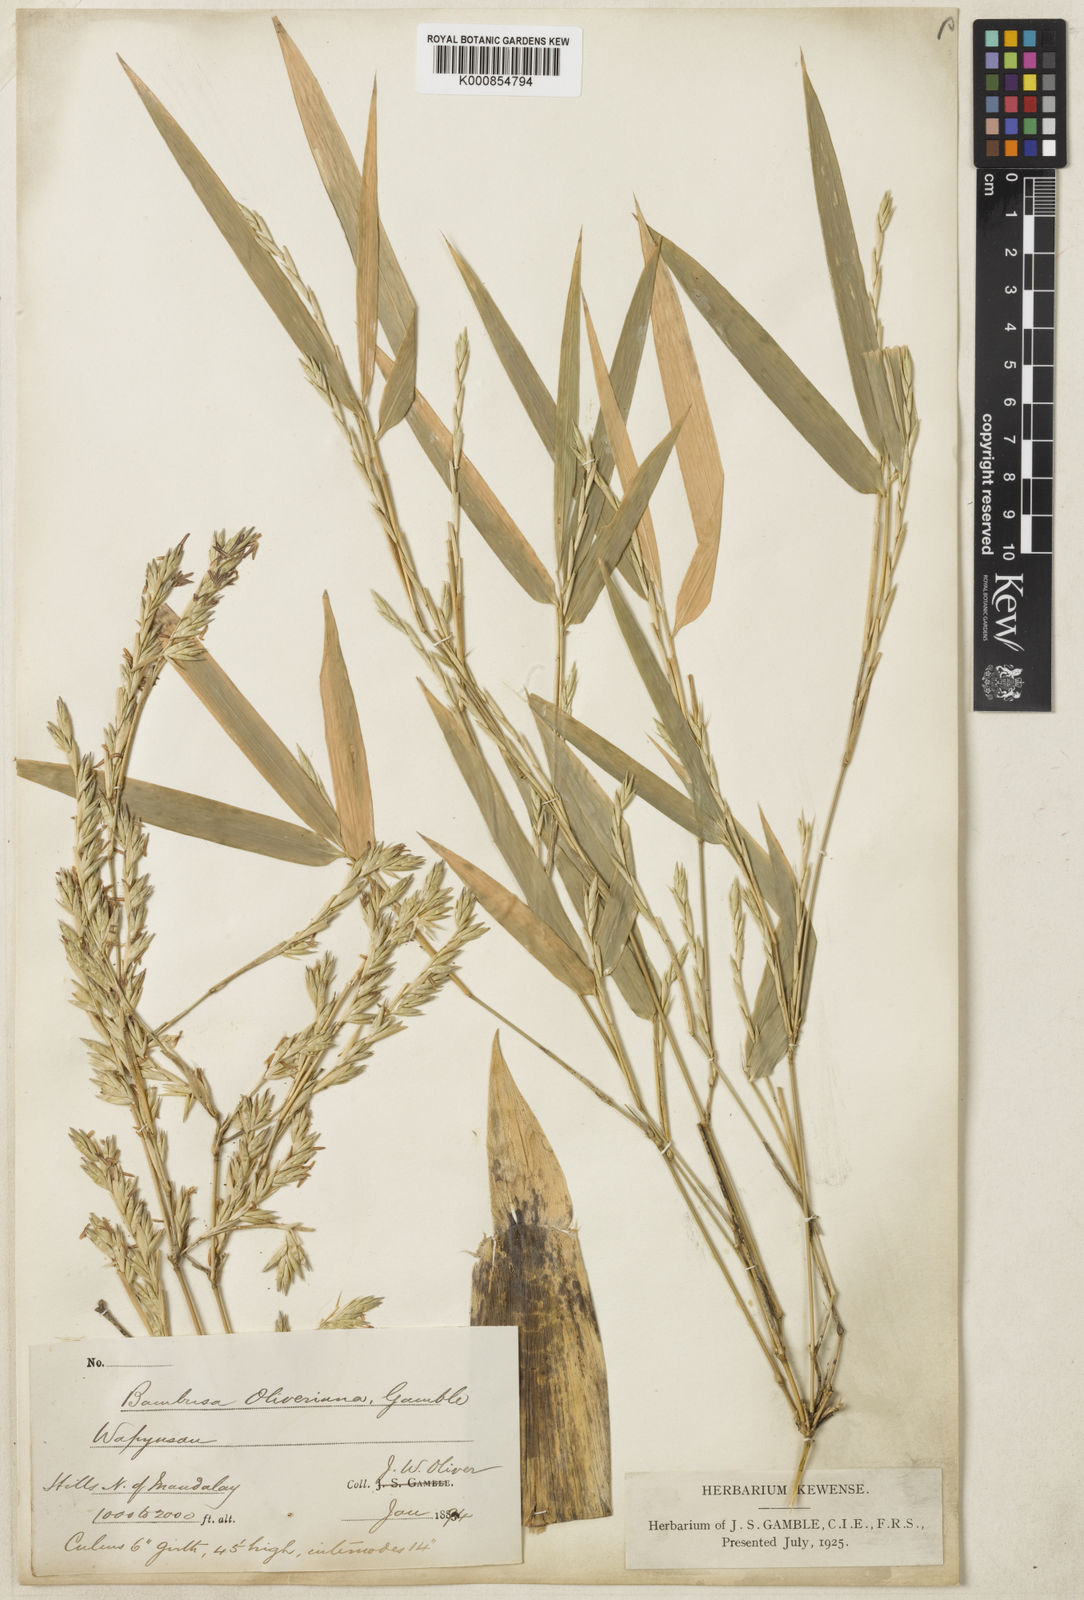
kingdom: Plantae
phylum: Tracheophyta
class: Liliopsida
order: Poales
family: Poaceae
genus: Bambusa
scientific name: Bambusa oliveriana
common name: Bush bamboo
